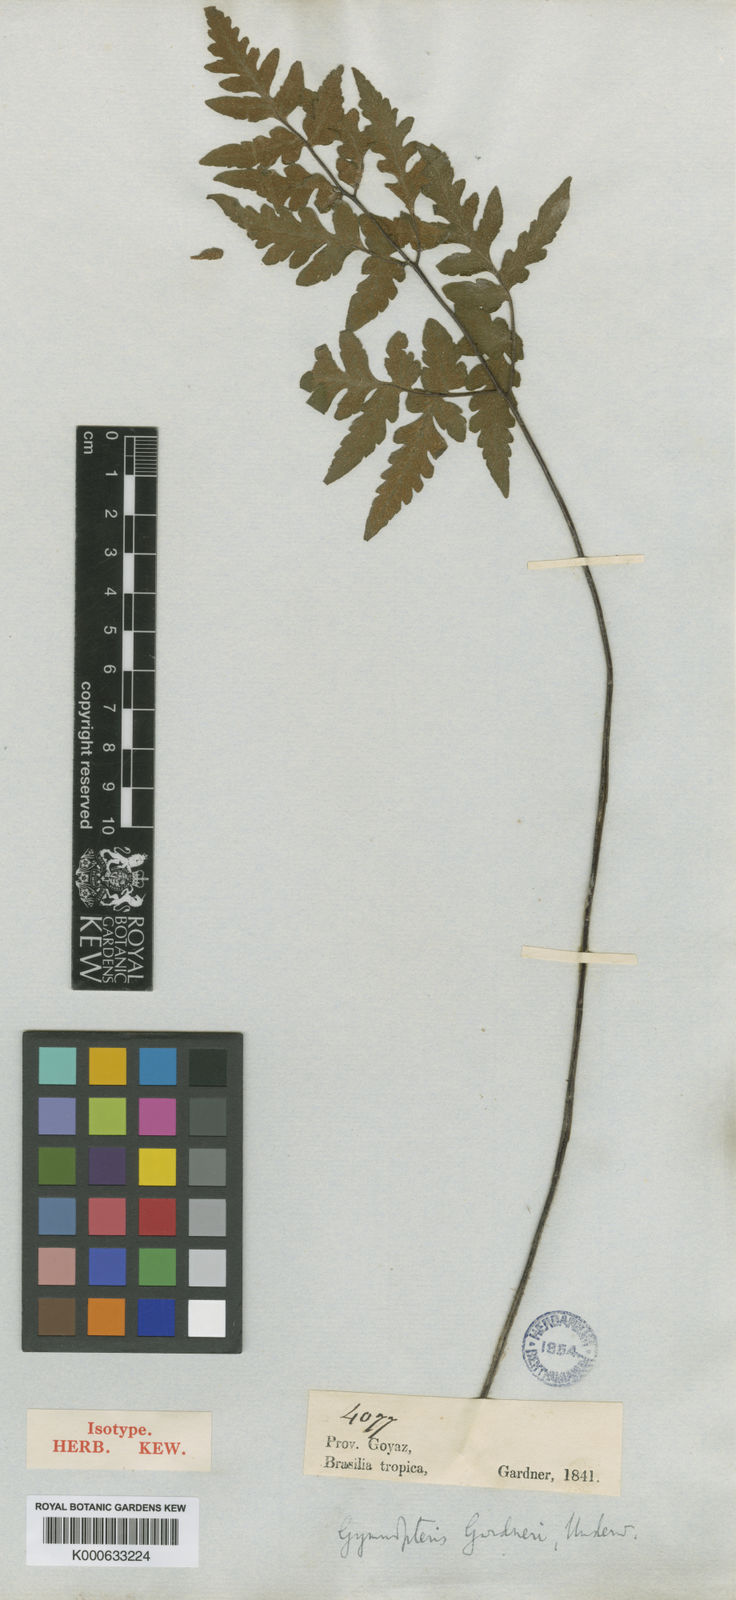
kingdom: Plantae
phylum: Tracheophyta
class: Polypodiopsida
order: Polypodiales
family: Pteridaceae
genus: Hemionitis
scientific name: Hemionitis Gymnopteris gardneri
